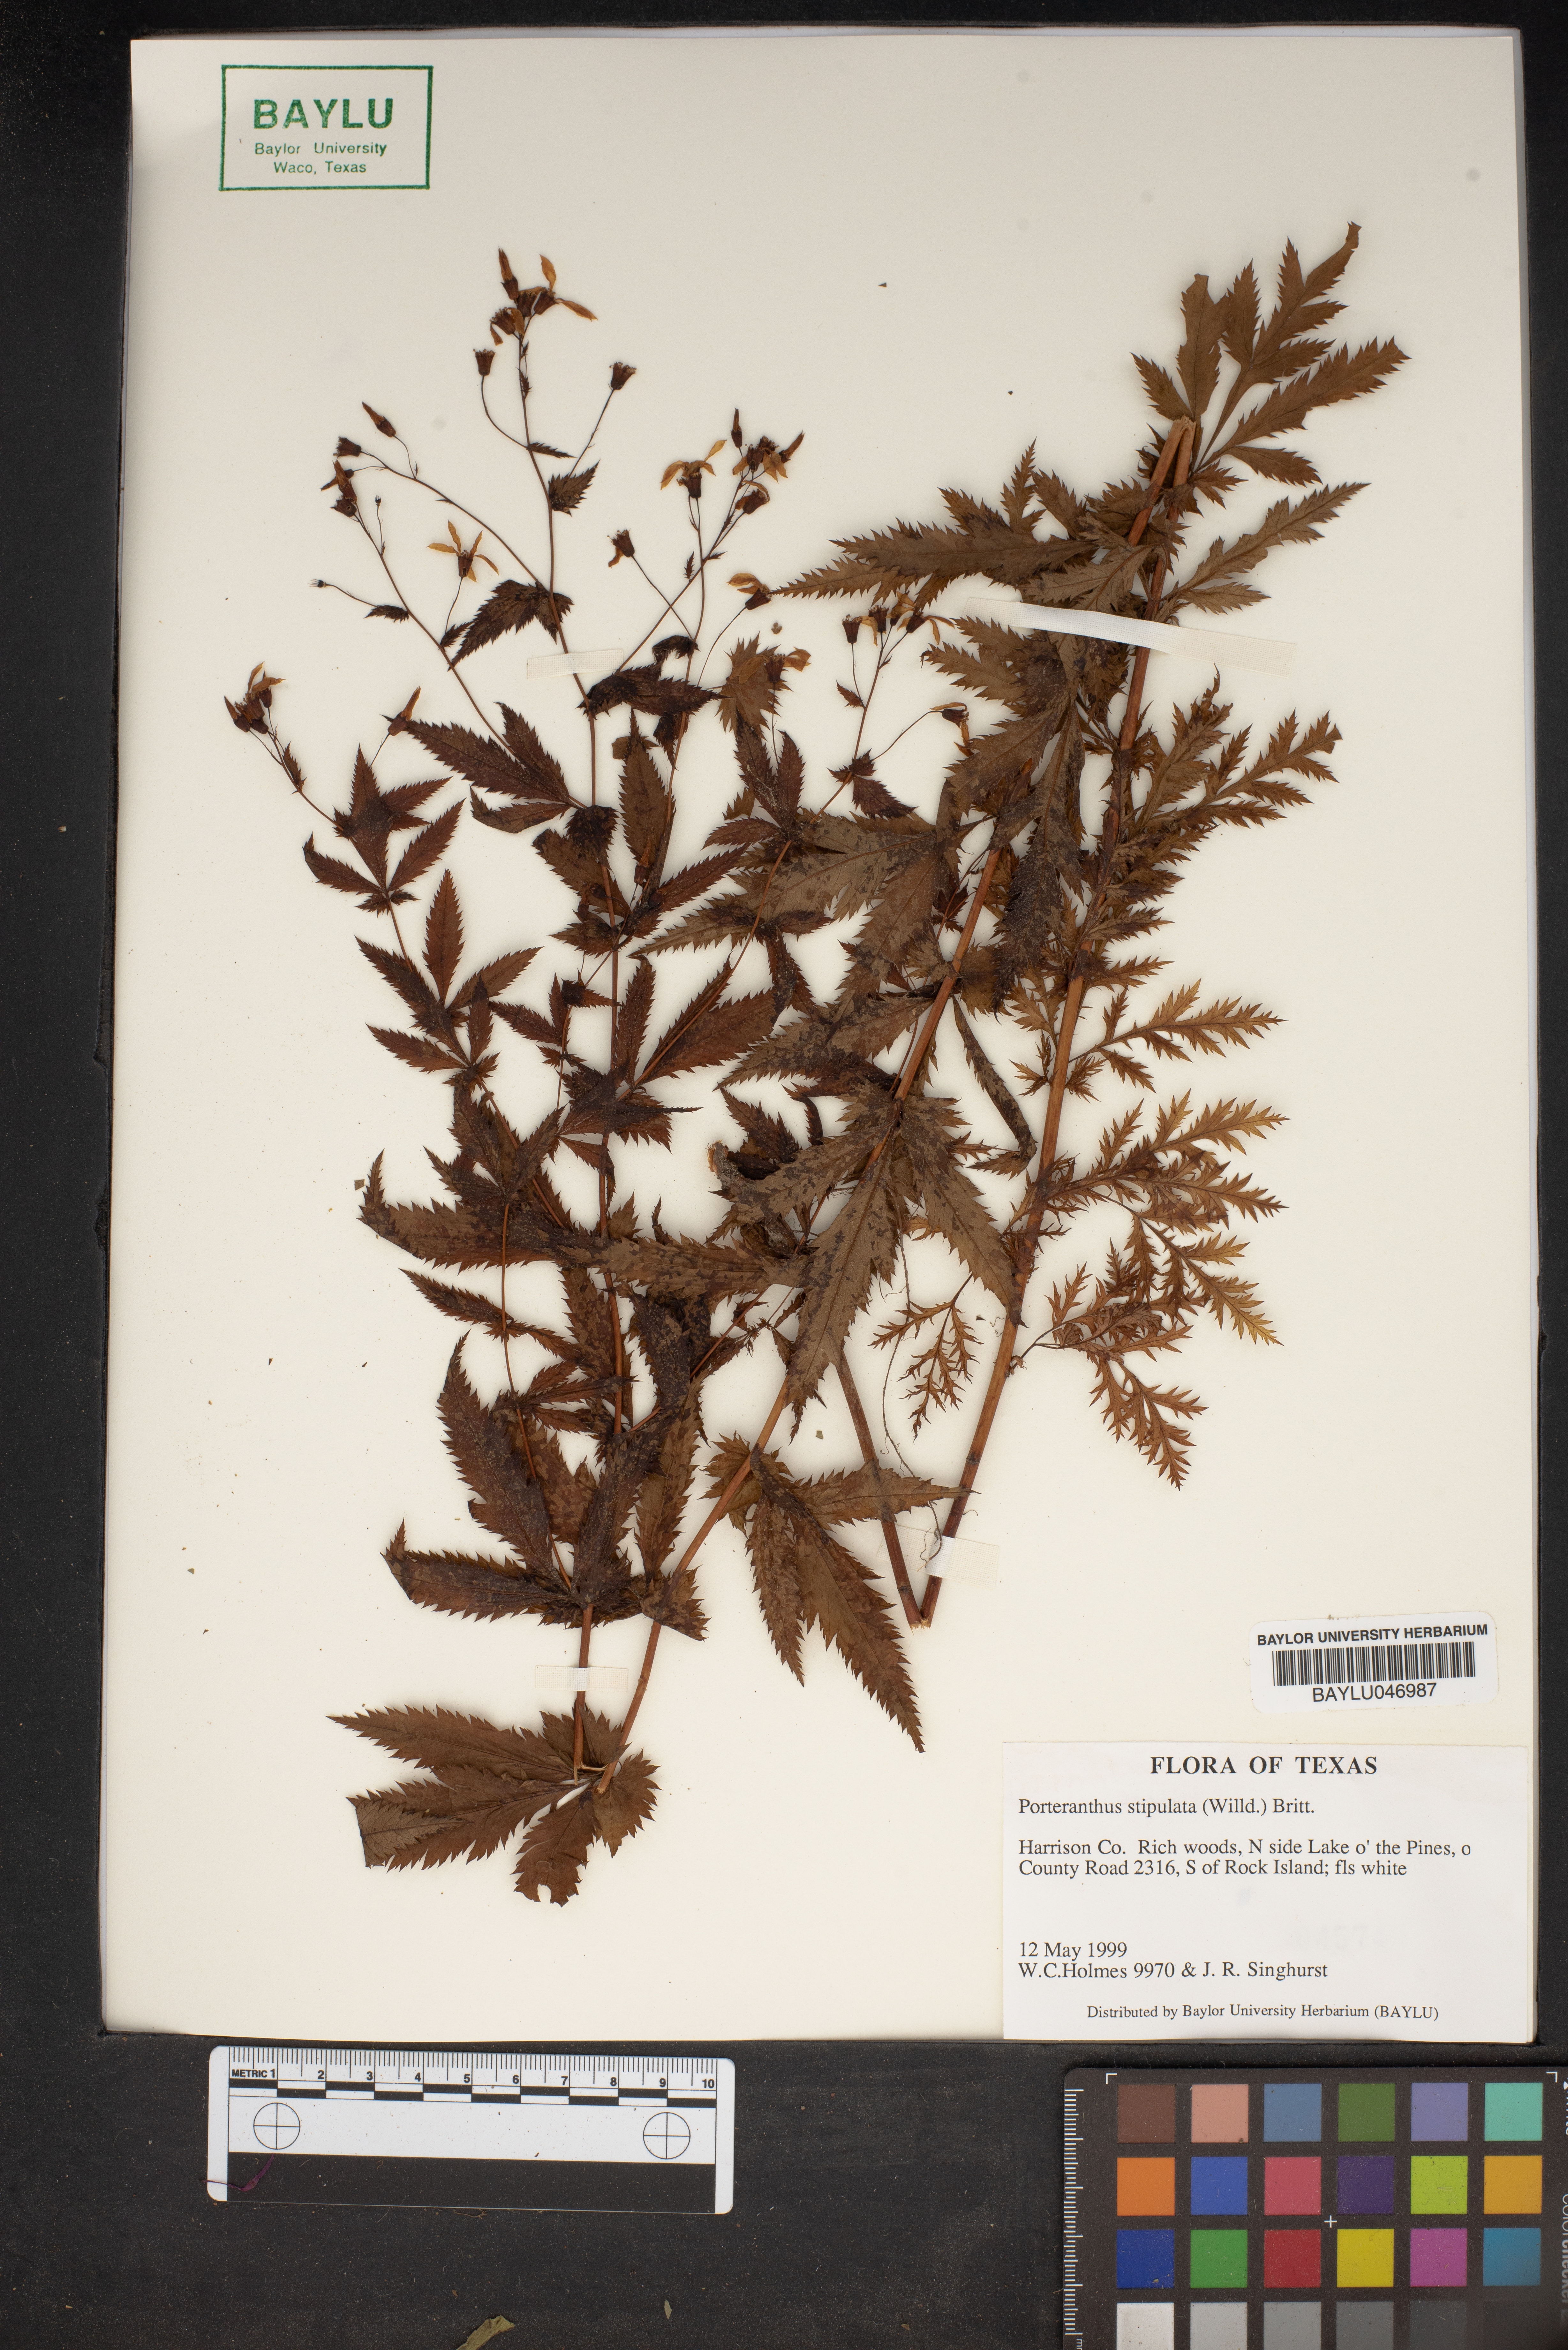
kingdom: Plantae
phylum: Tracheophyta
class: Magnoliopsida
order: Rosales
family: Rosaceae
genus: Gillenia
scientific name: Gillenia stipulata
